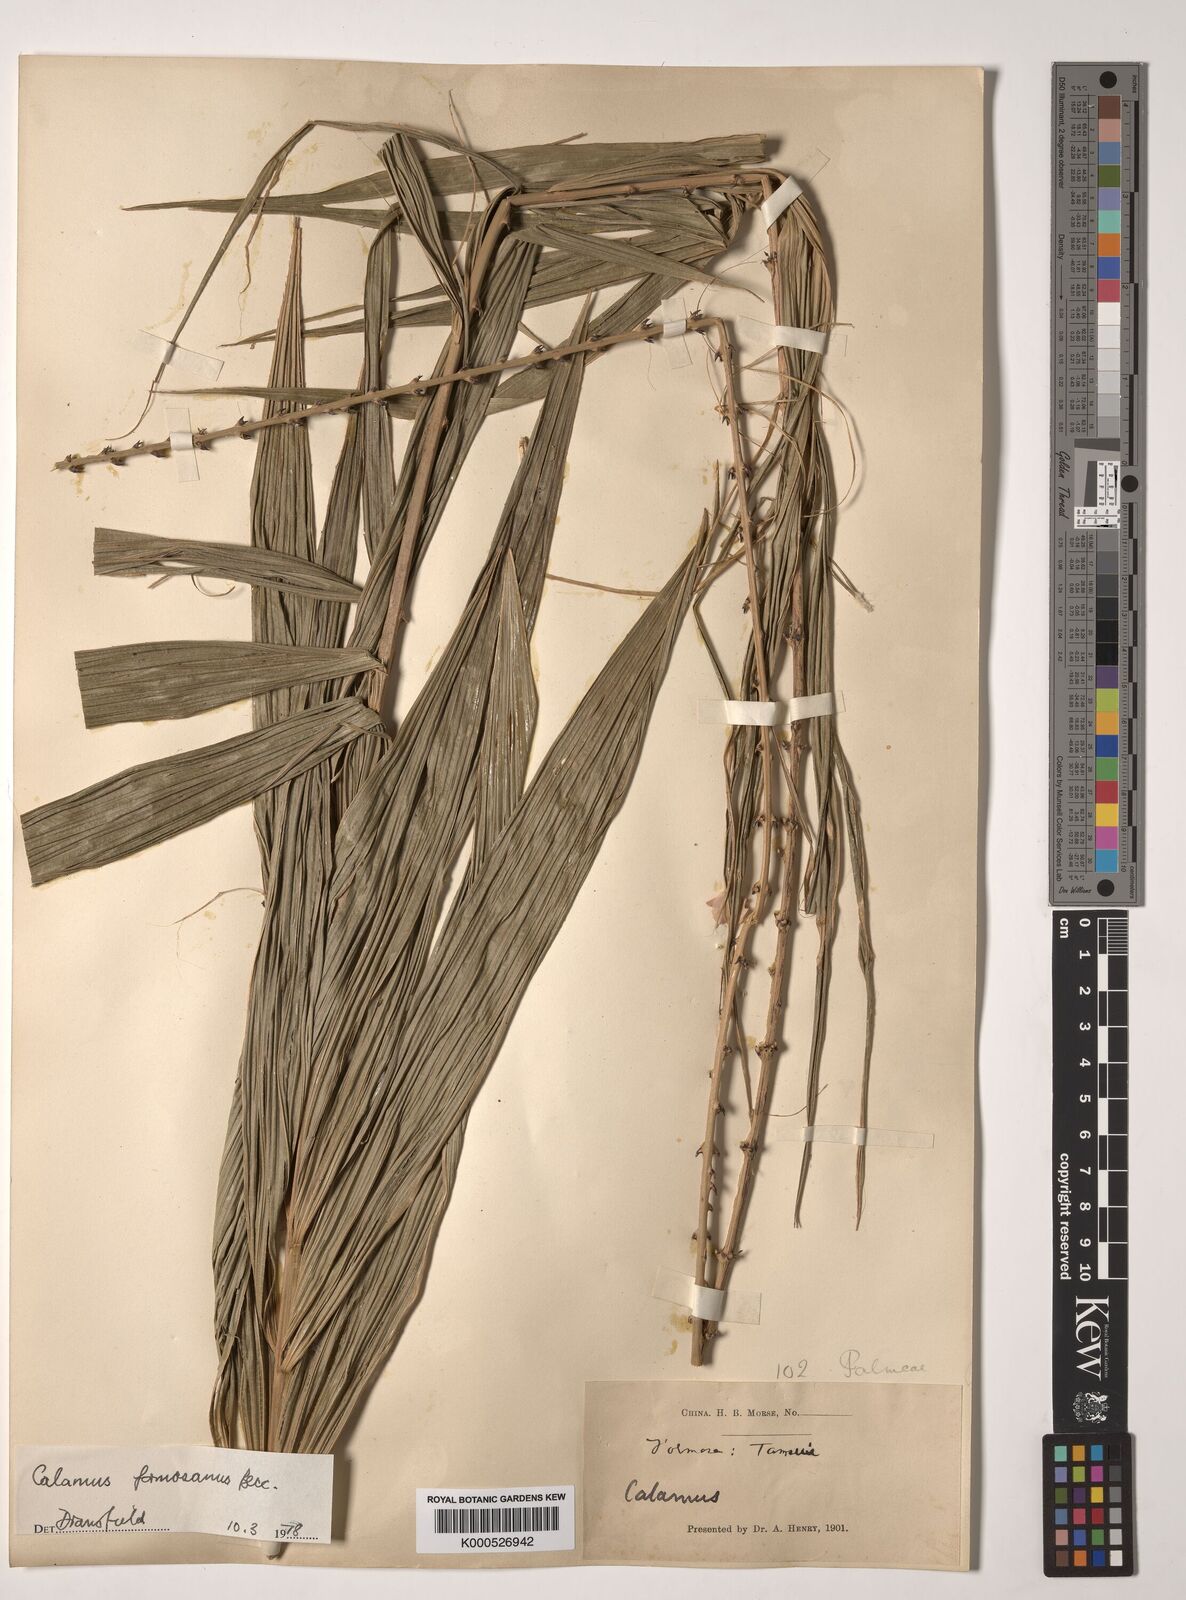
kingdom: Plantae
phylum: Tracheophyta
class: Liliopsida
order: Arecales
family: Arecaceae
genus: Calamus
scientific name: Calamus formosanus
